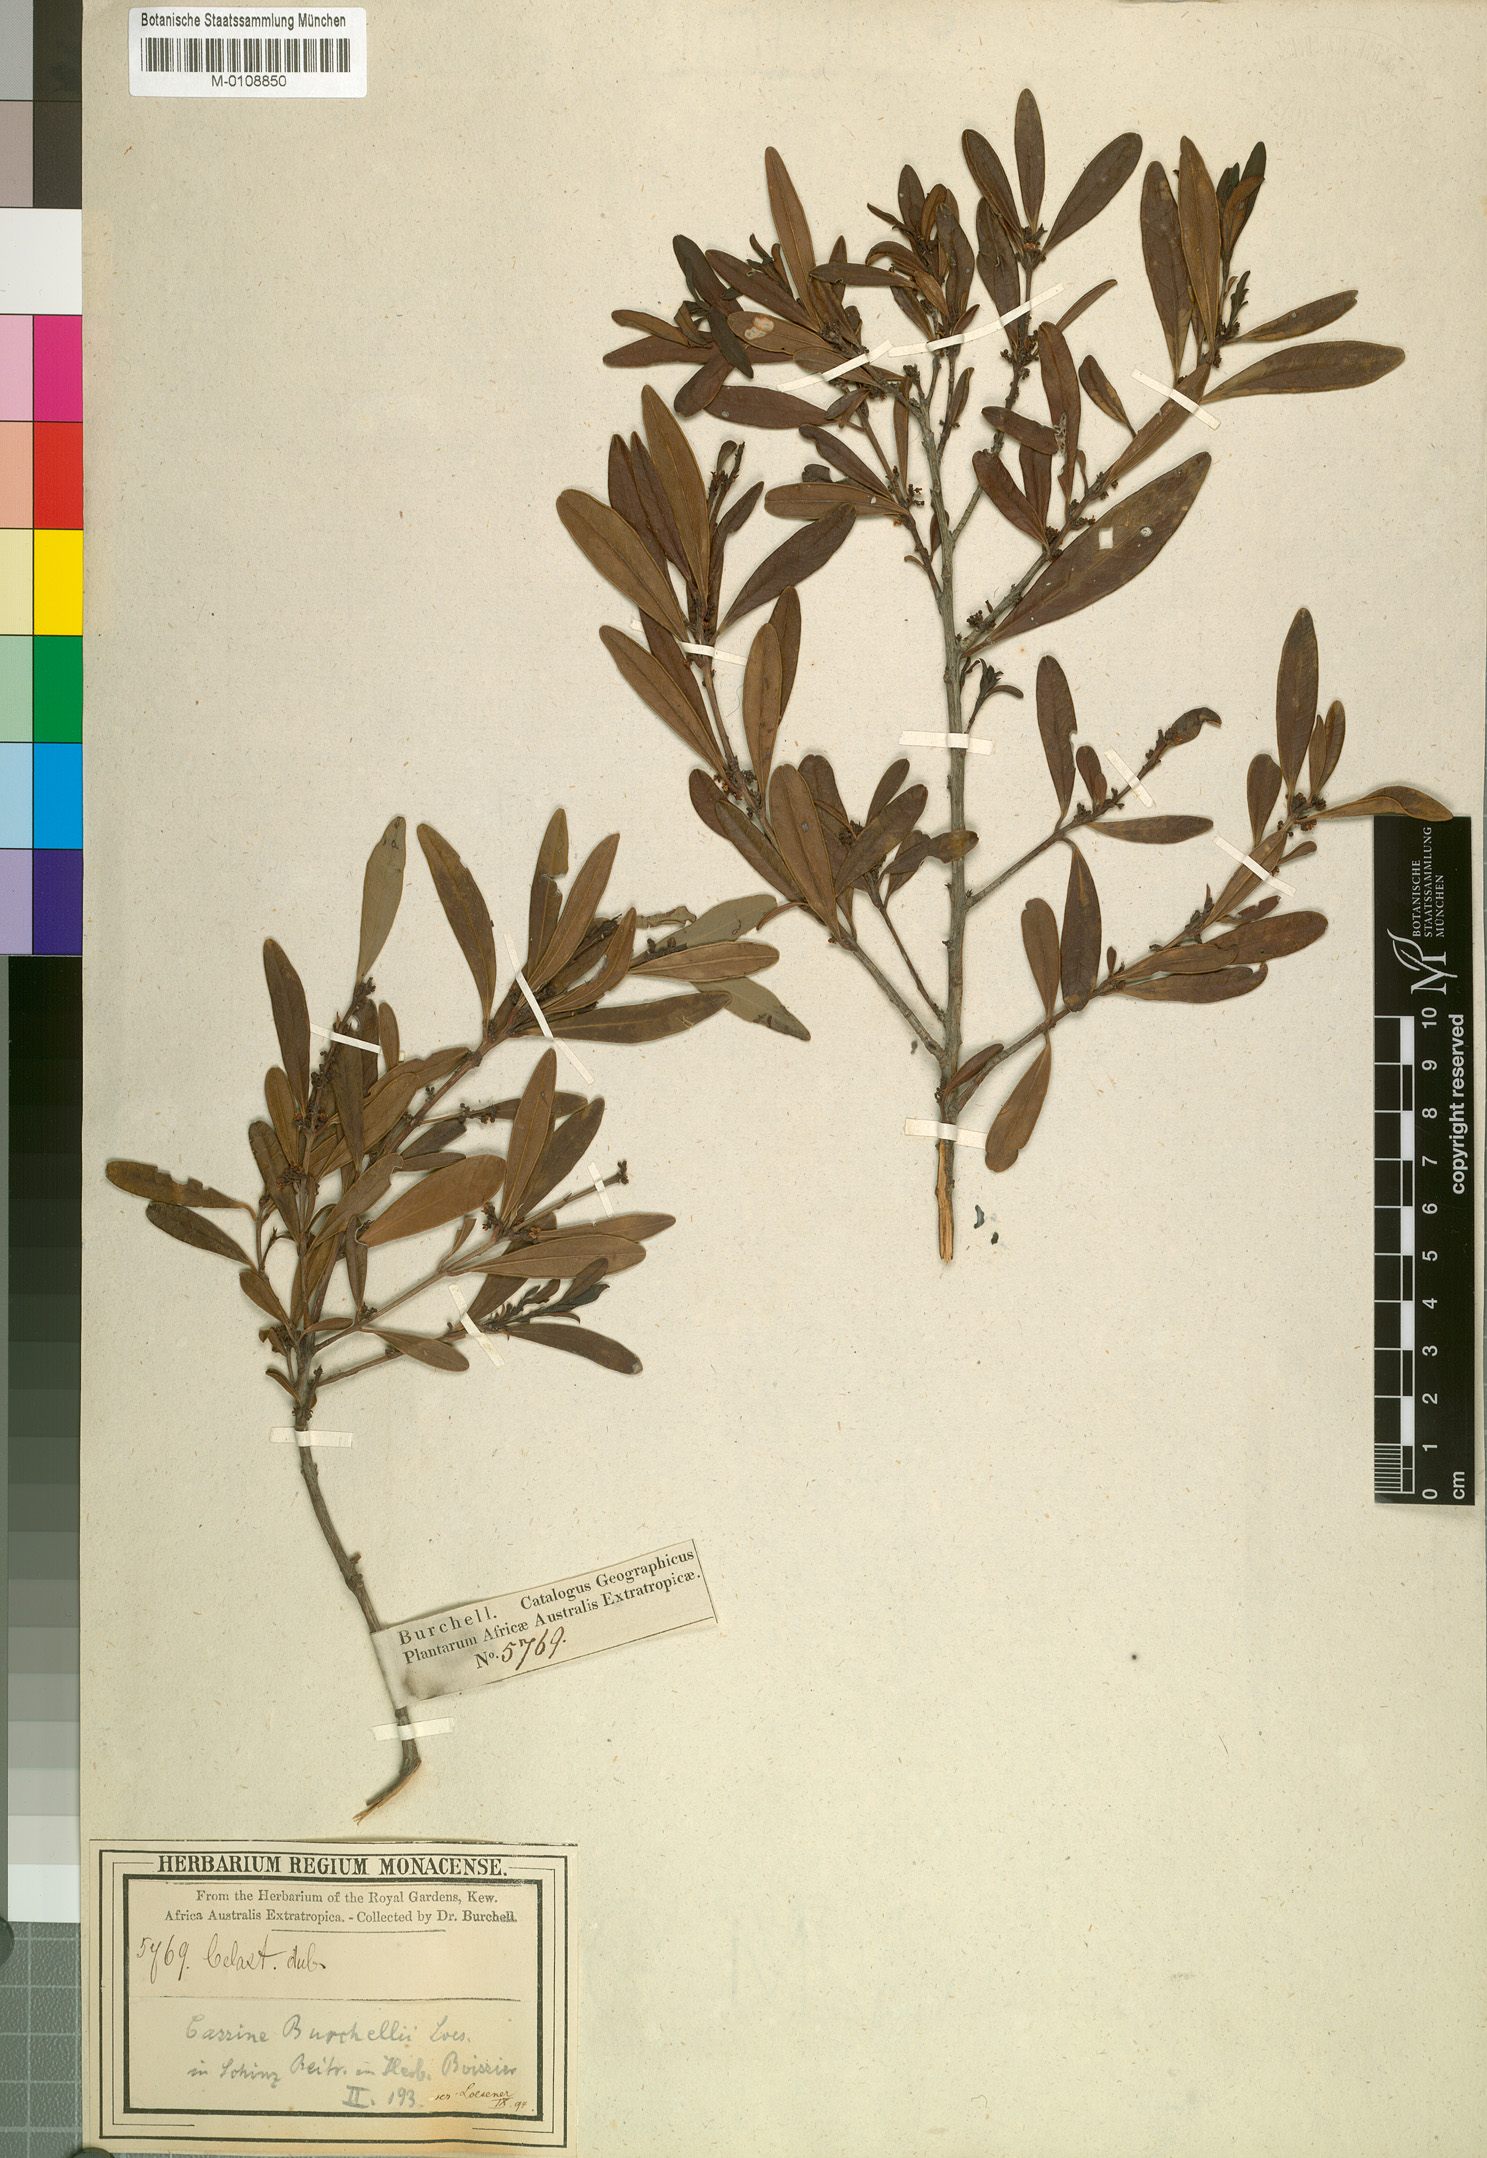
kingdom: Plantae
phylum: Tracheophyta
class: Magnoliopsida
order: Celastrales
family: Celastraceae
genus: Cassine
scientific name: Cassine burchellii
